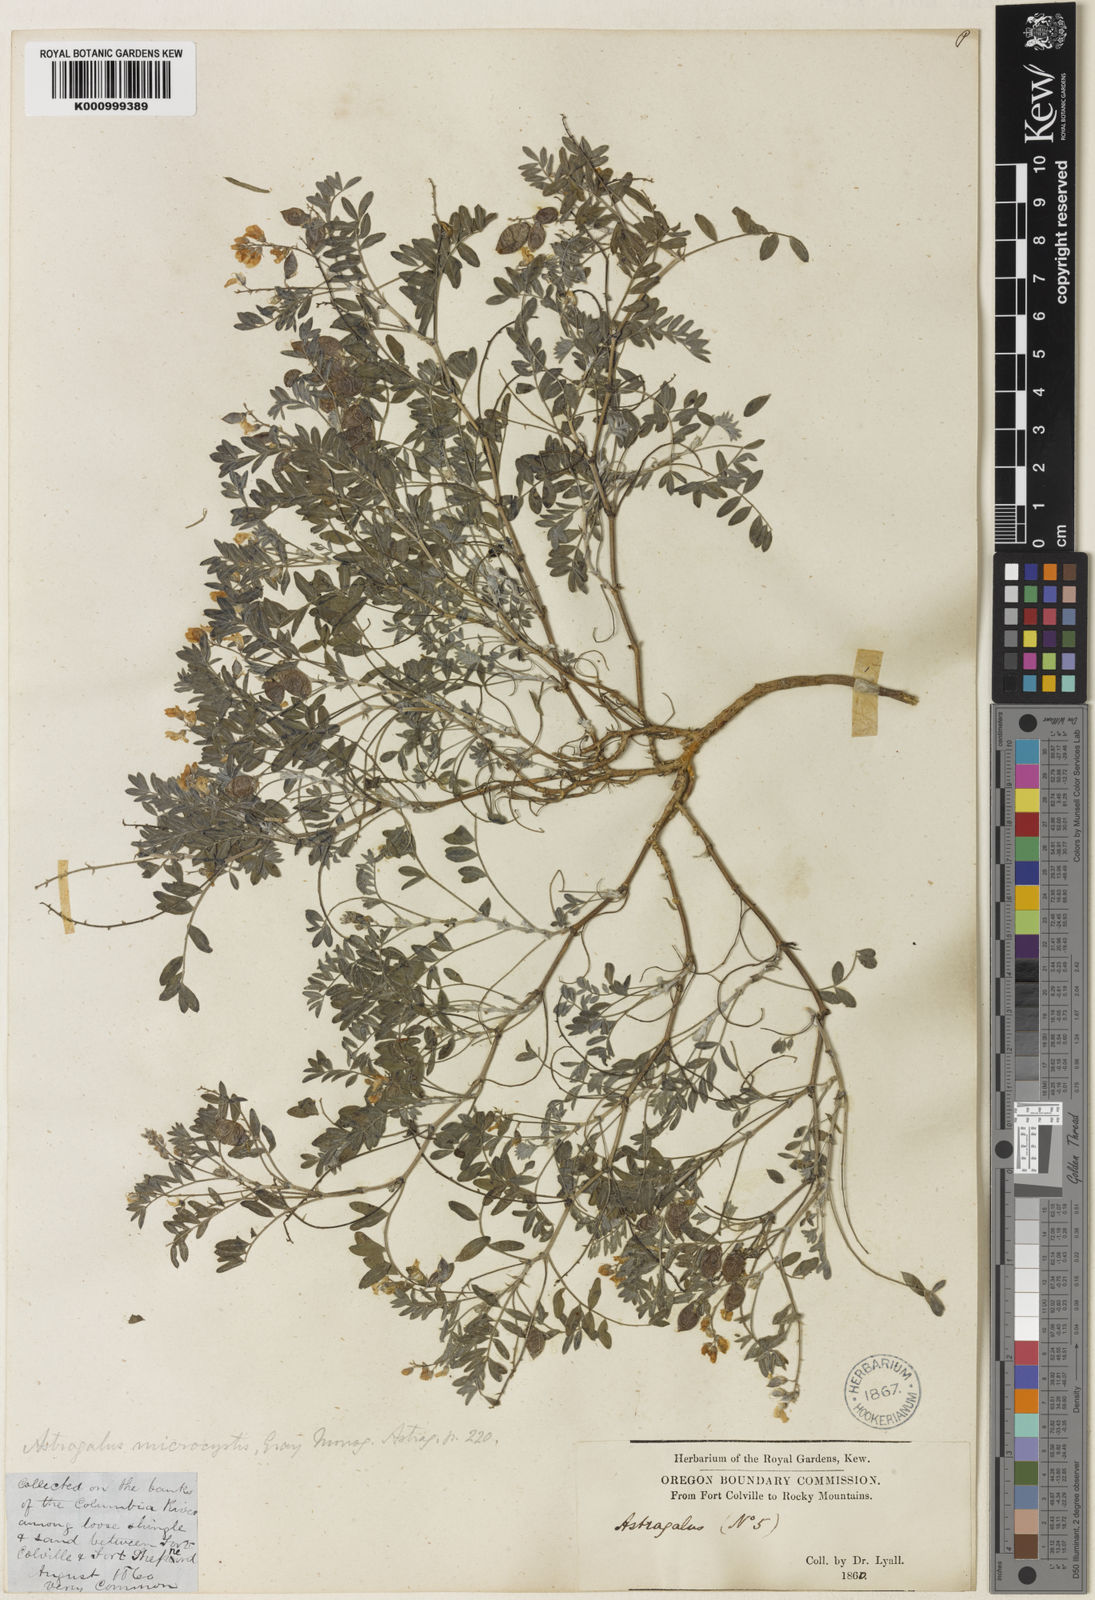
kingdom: Plantae
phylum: Tracheophyta
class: Magnoliopsida
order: Fabales
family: Fabaceae
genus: Astragalus
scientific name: Astragalus microcystis
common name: Dwarf milk-vetch
